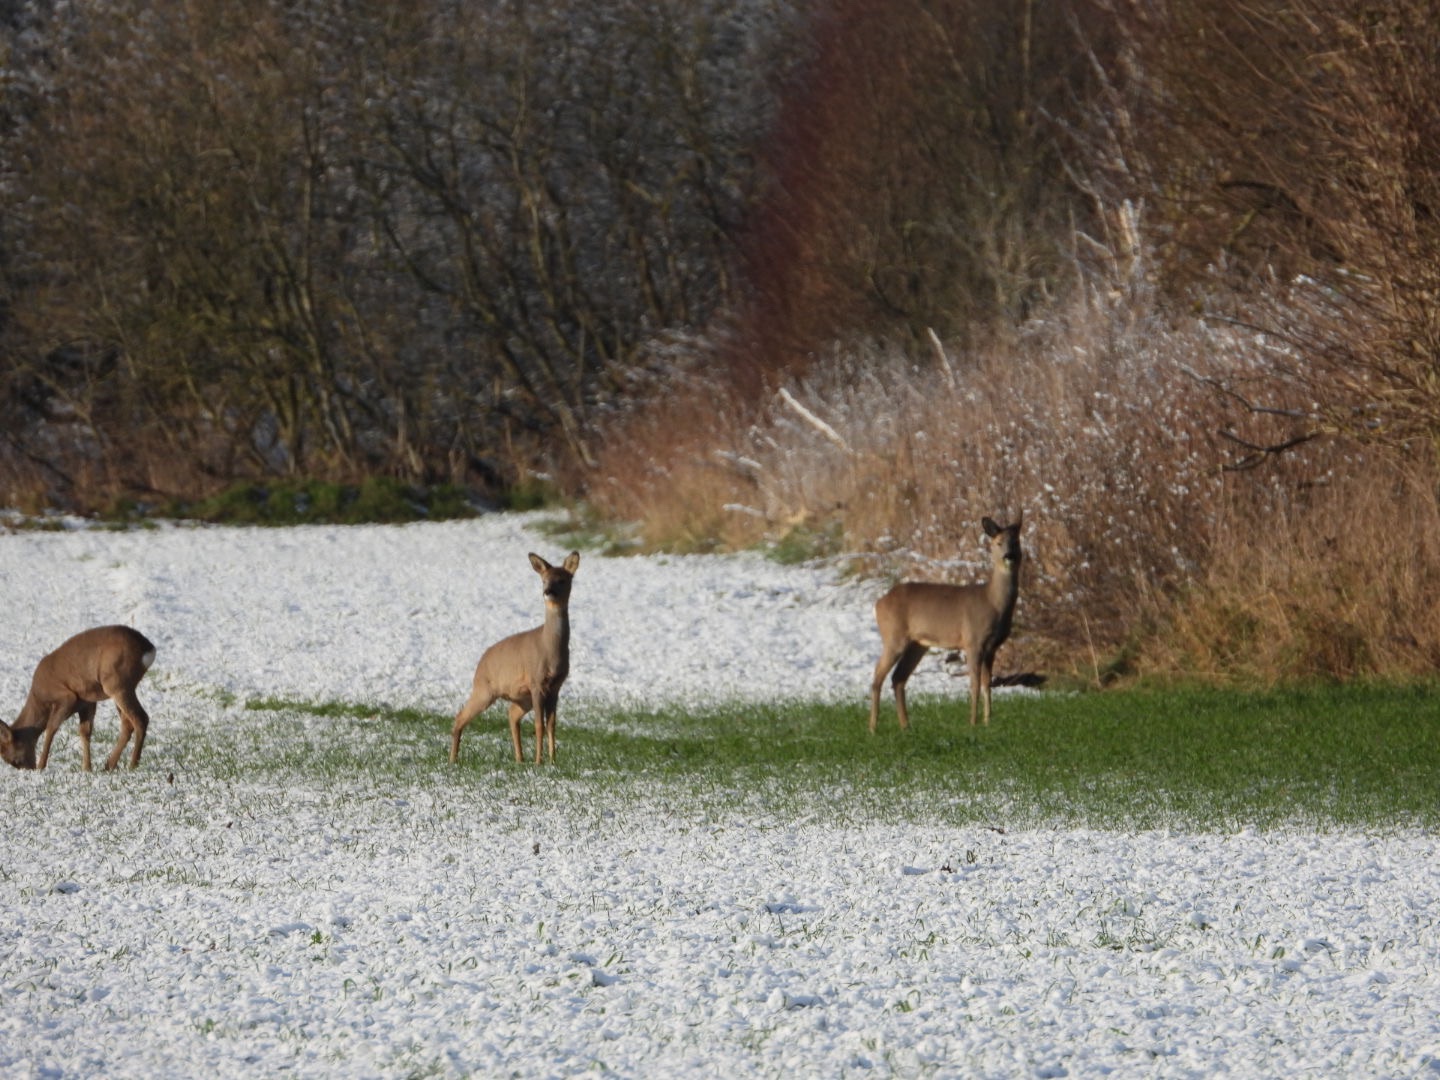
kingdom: Animalia
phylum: Chordata
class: Mammalia
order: Artiodactyla
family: Cervidae
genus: Capreolus
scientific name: Capreolus capreolus
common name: Rådyr
